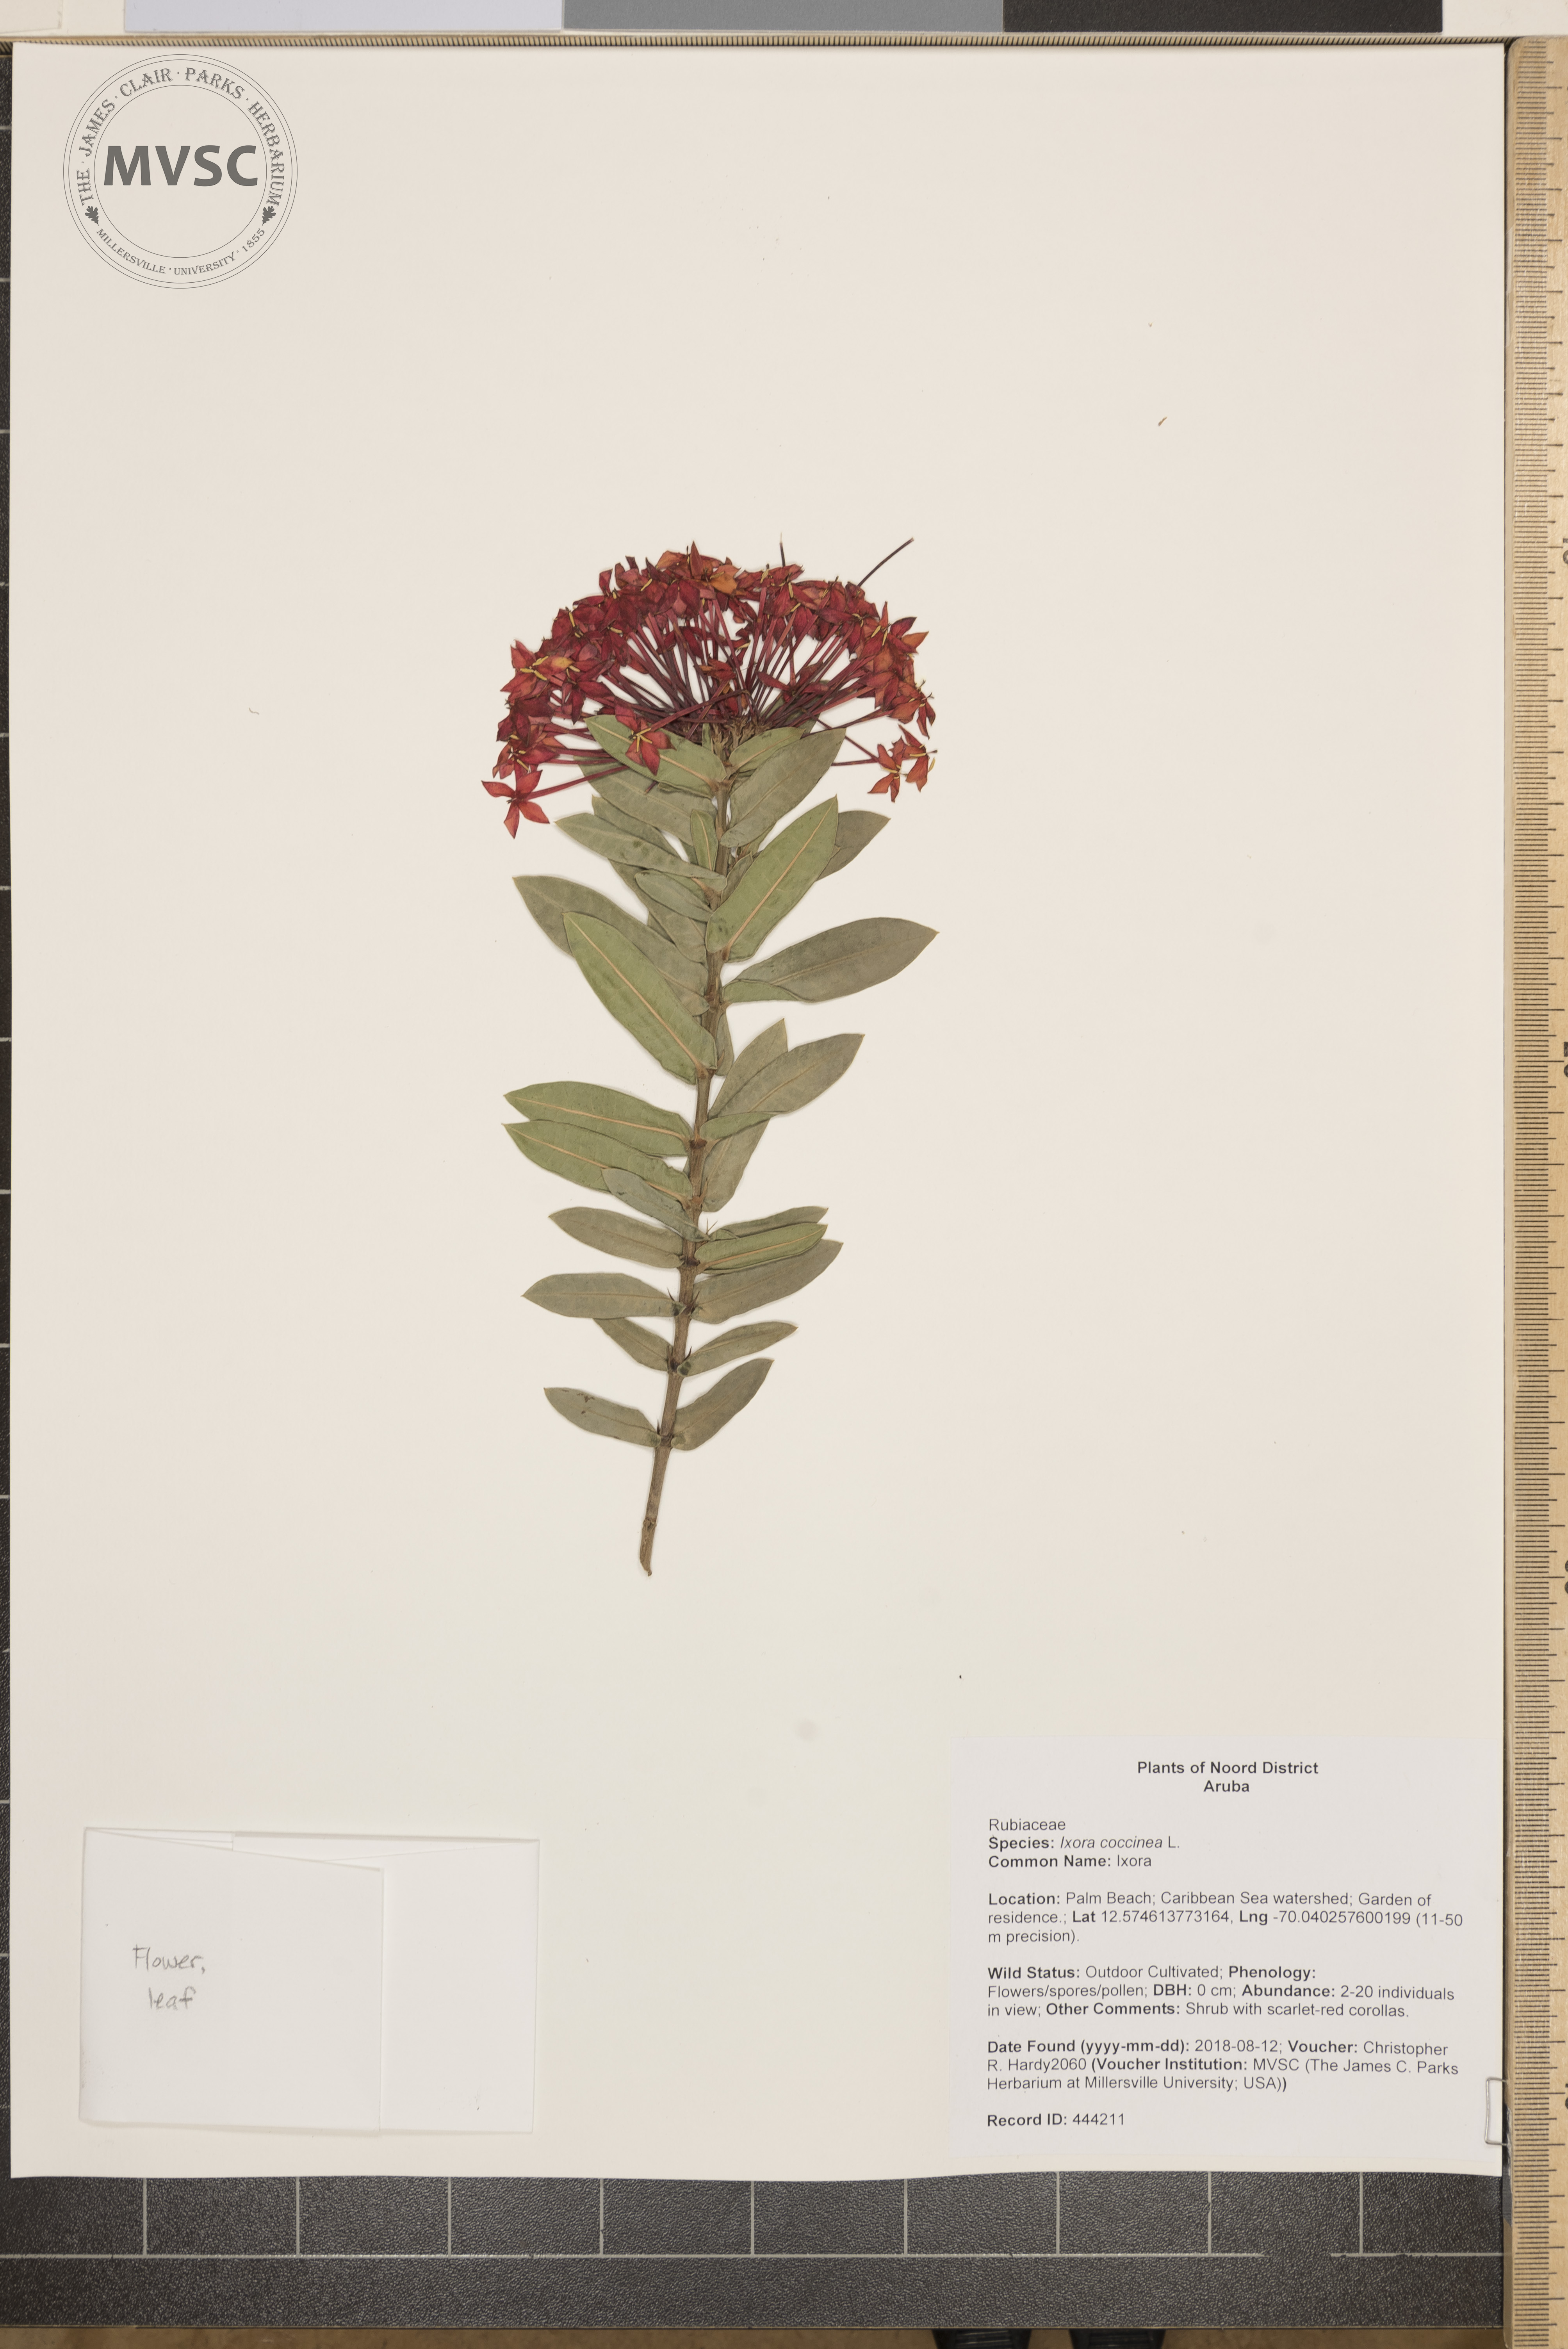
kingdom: Plantae
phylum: Tracheophyta
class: Magnoliopsida
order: Gentianales
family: Rubiaceae
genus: Ixora
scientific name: Ixora coccinea
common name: Ixora
